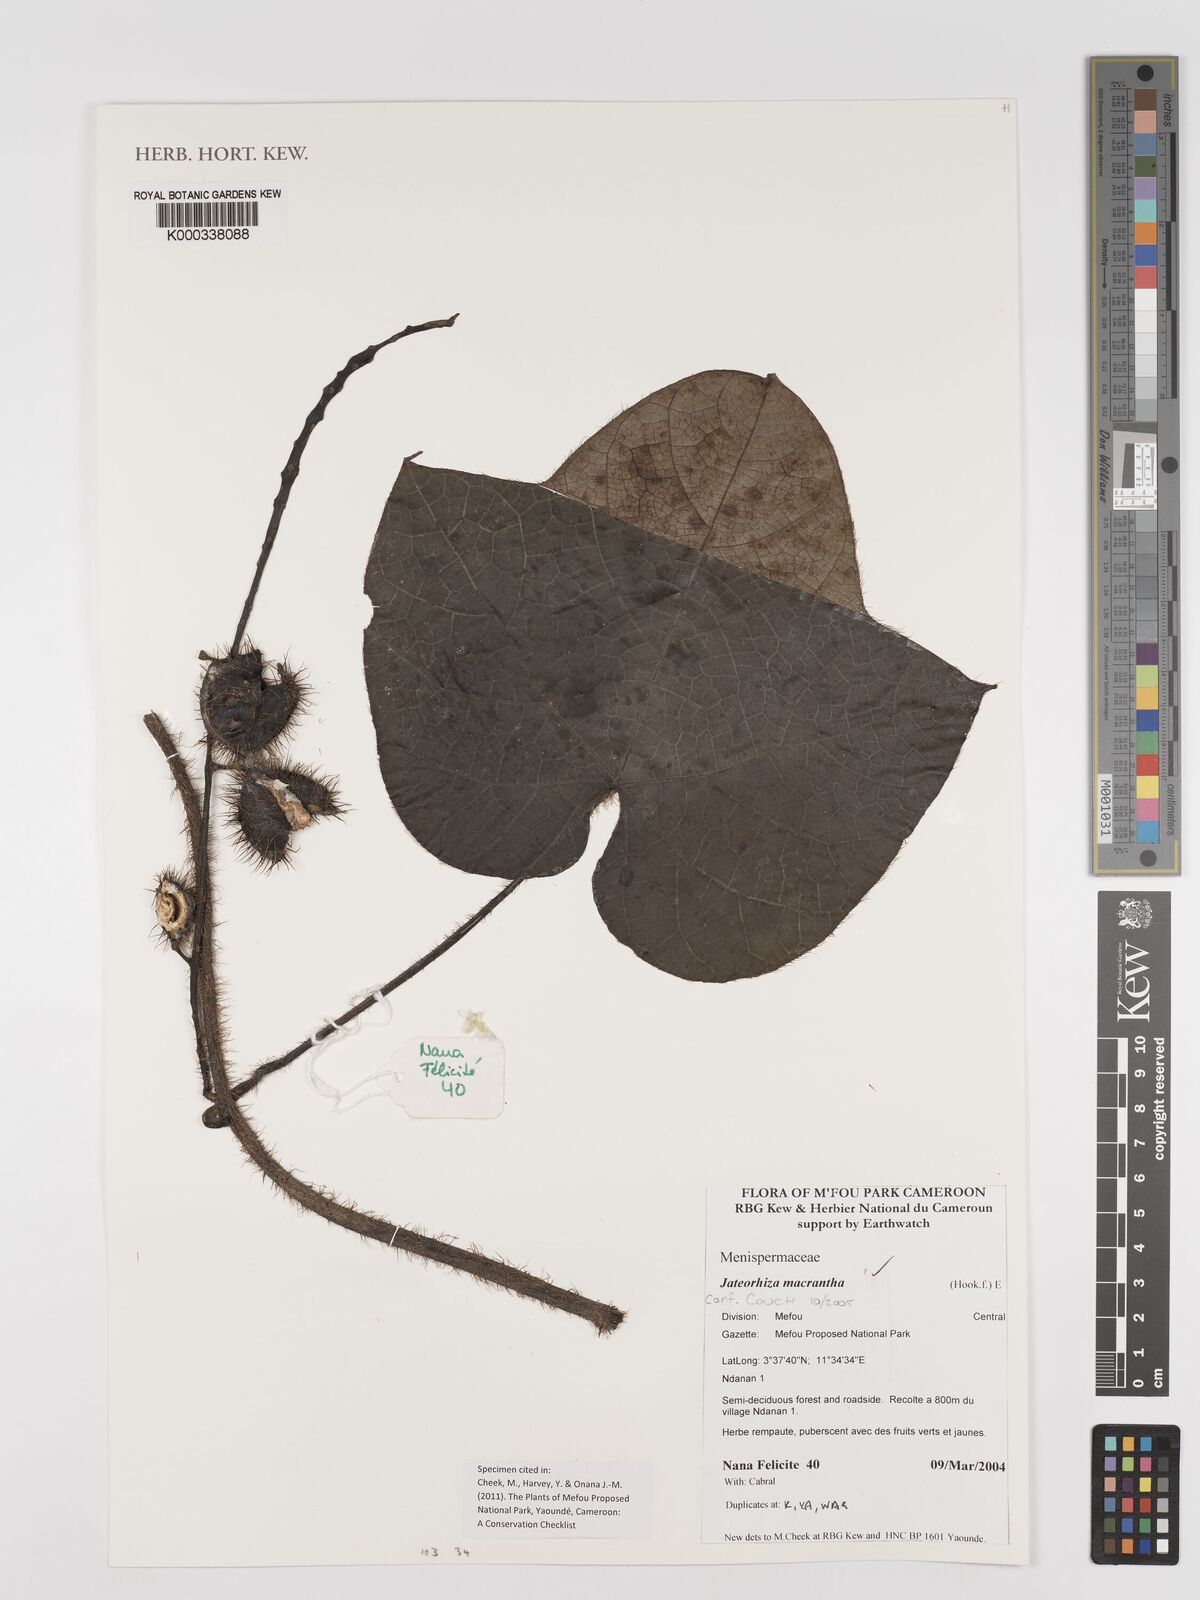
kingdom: Plantae
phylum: Tracheophyta
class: Magnoliopsida
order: Ranunculales
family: Menispermaceae
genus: Jateorhiza
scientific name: Jateorhiza
